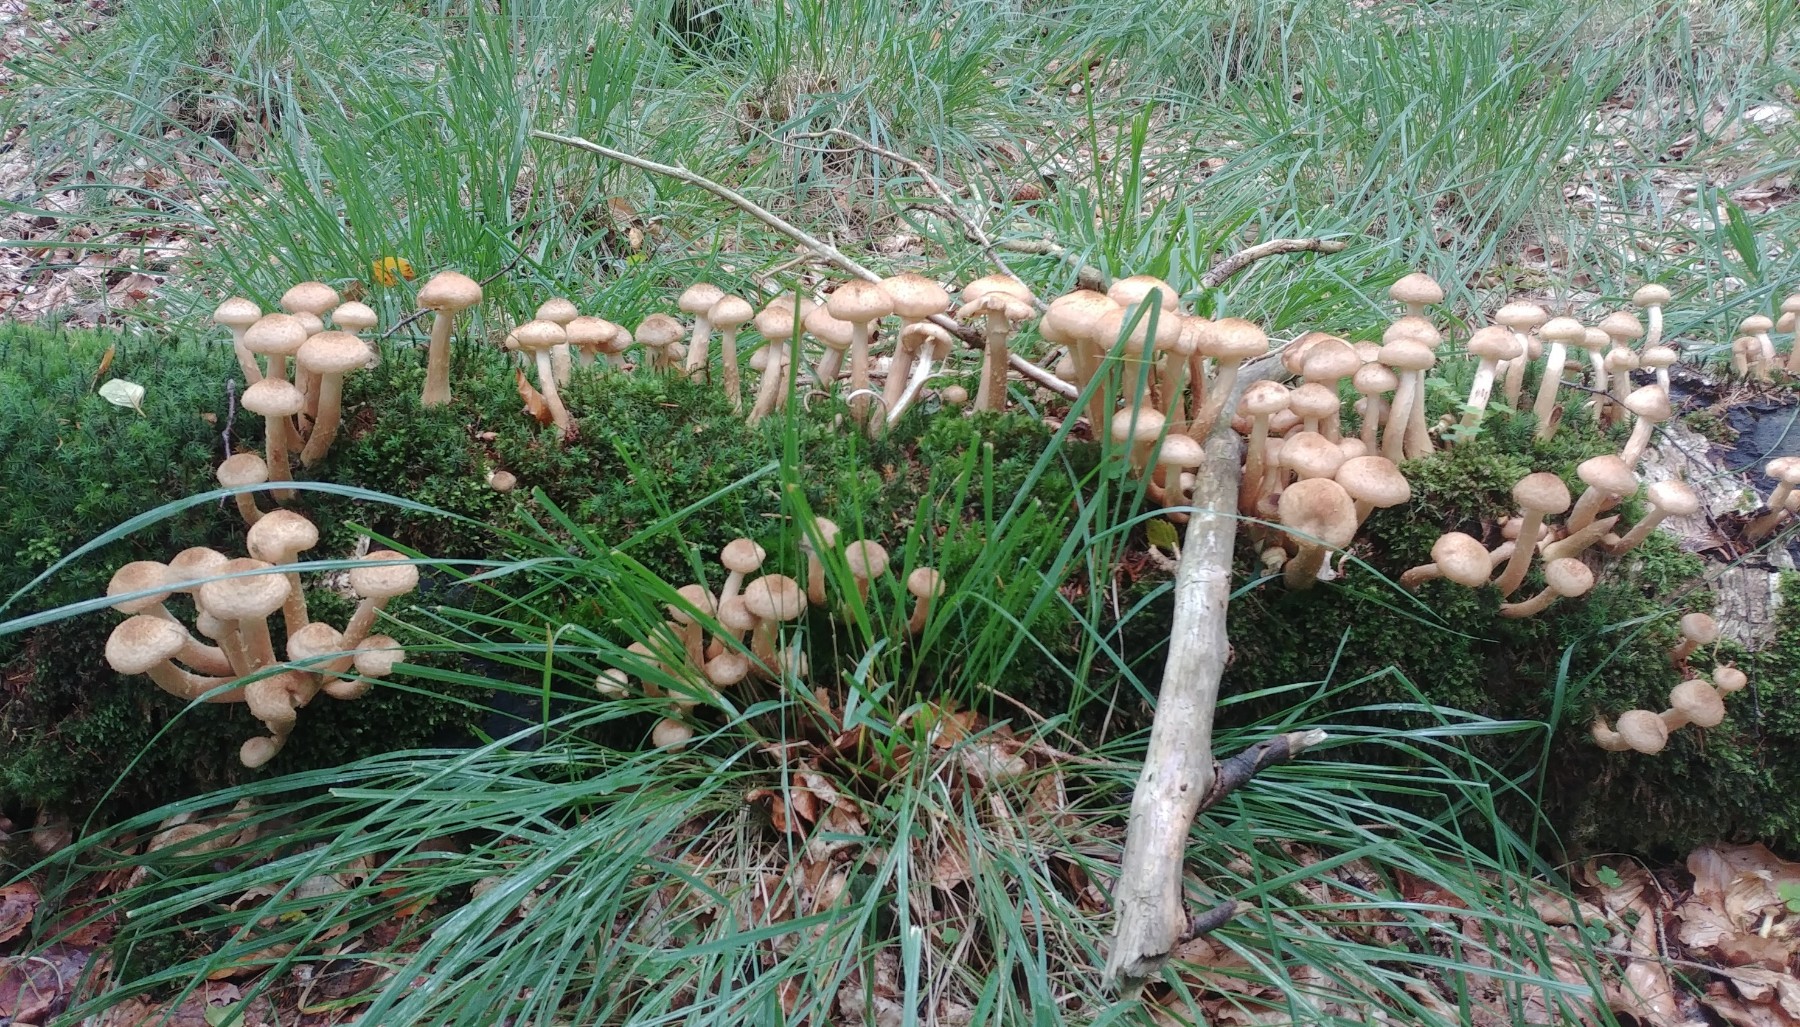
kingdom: Fungi
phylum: Basidiomycota
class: Agaricomycetes
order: Agaricales
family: Physalacriaceae
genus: Armillaria
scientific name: Armillaria
